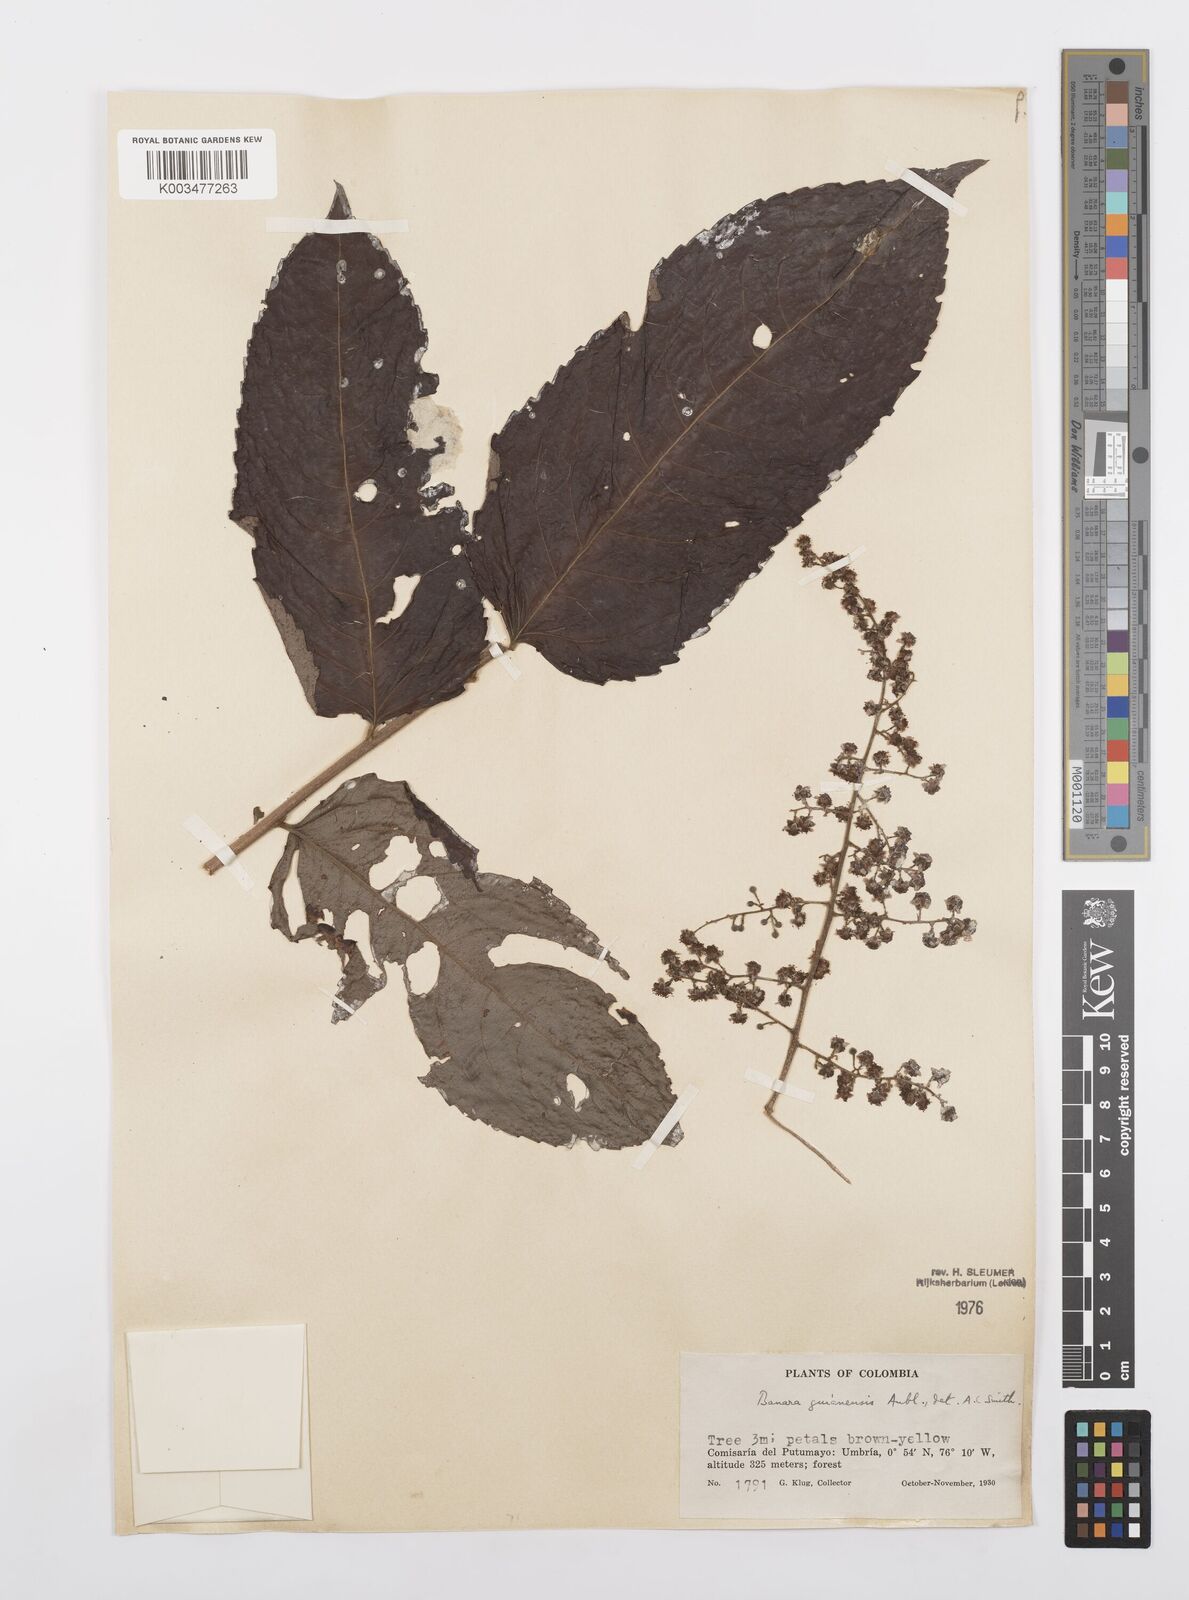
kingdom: Plantae
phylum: Tracheophyta
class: Magnoliopsida
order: Malpighiales
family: Salicaceae
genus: Banara
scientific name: Banara guianensis
